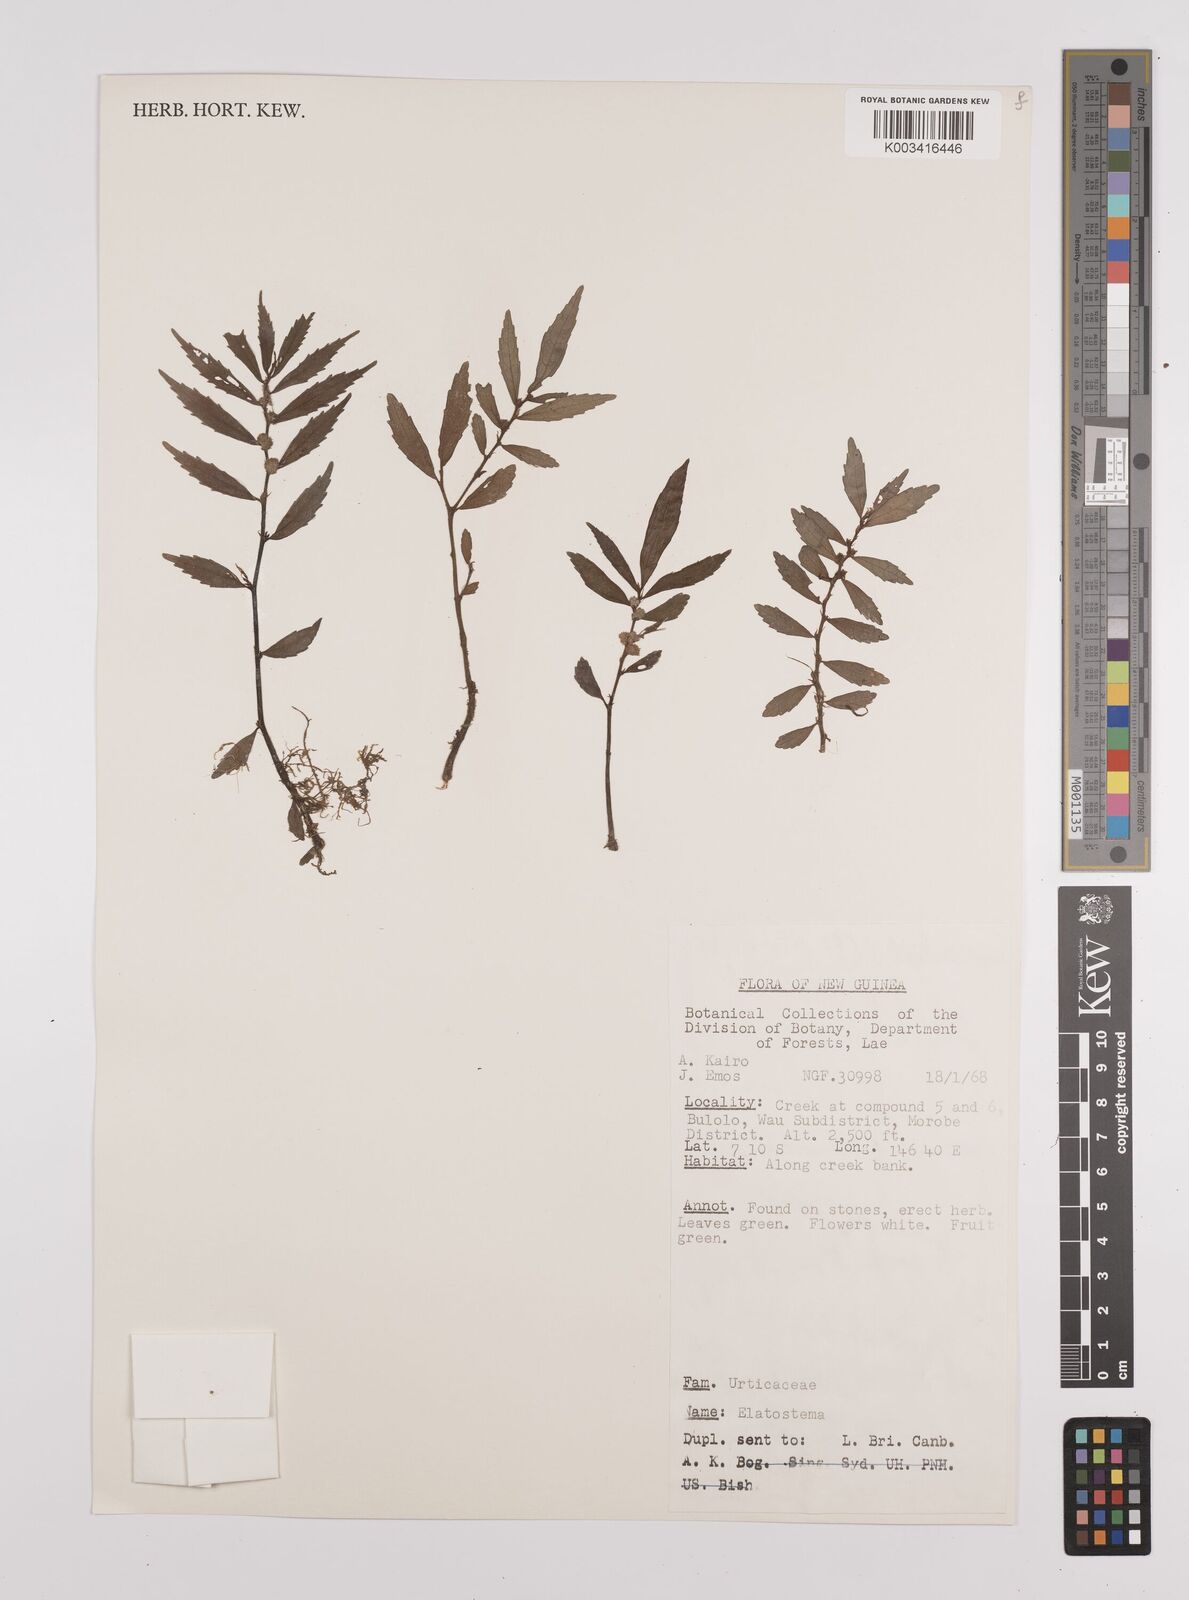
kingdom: Plantae
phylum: Tracheophyta
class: Magnoliopsida
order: Rosales
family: Urticaceae
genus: Elatostema
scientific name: Elatostema
